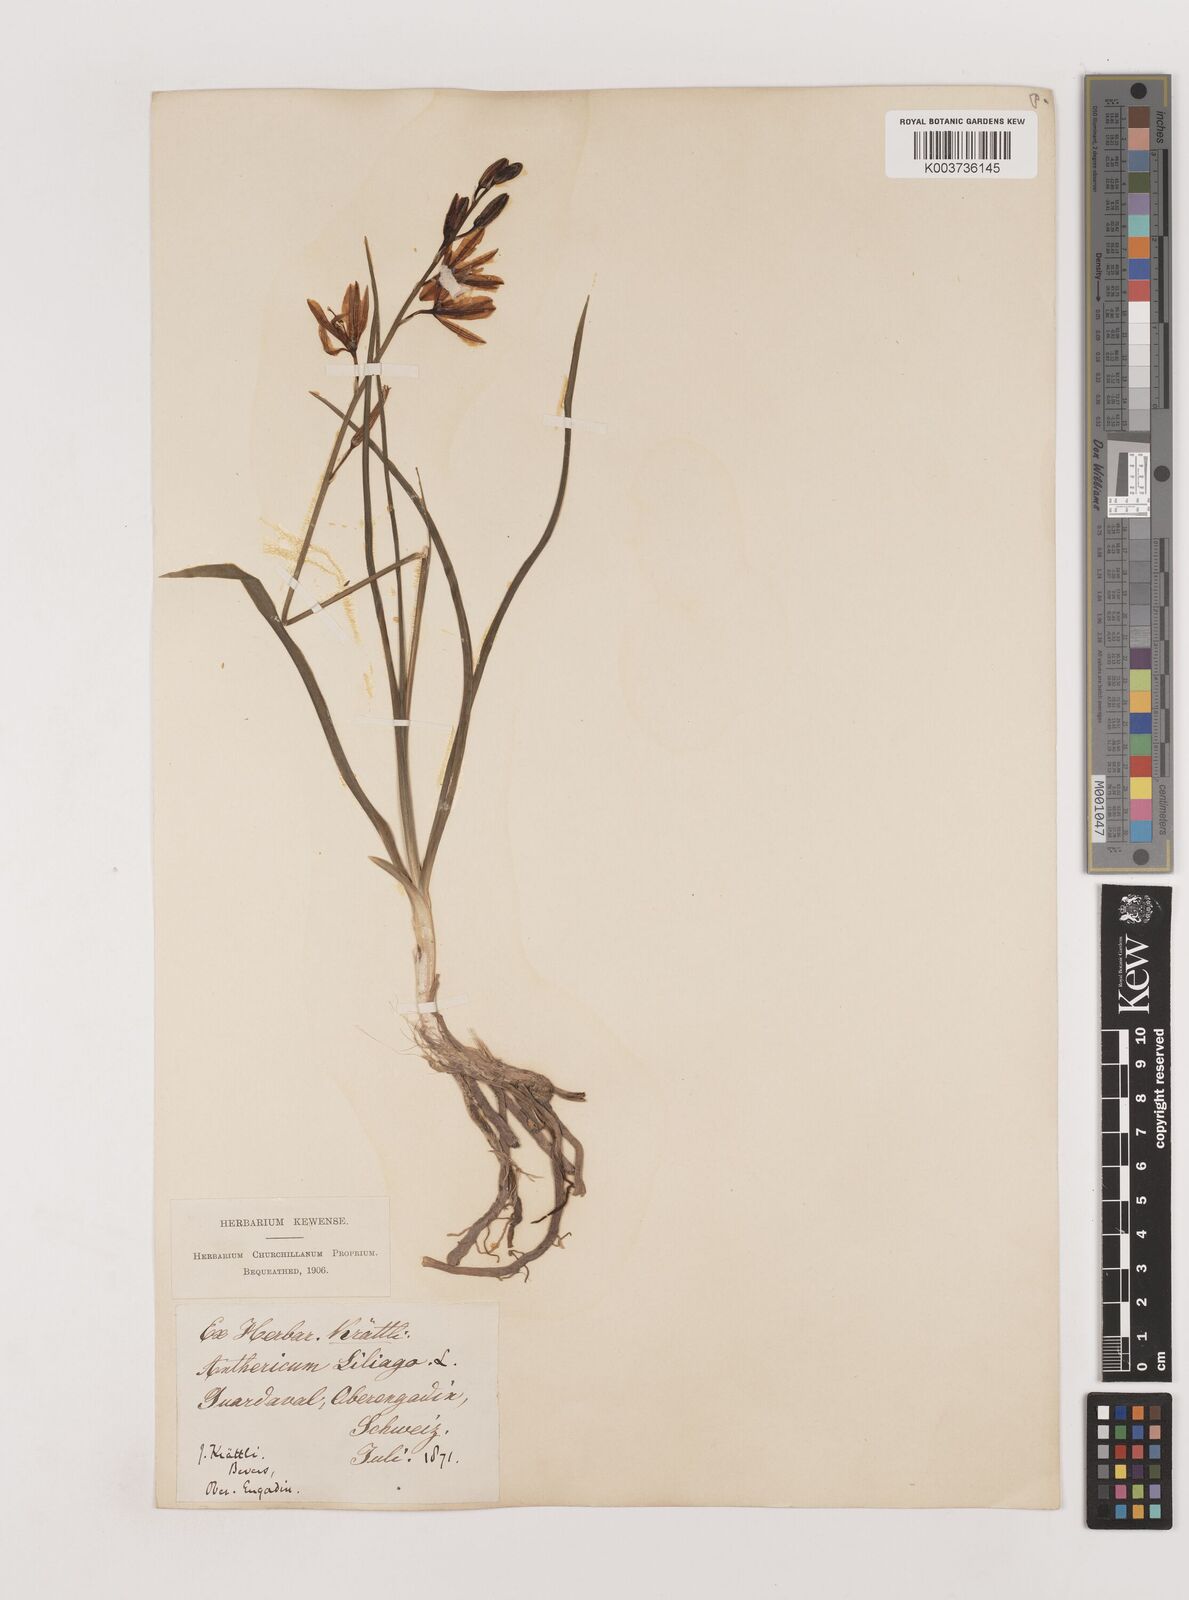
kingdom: Plantae
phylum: Tracheophyta
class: Liliopsida
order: Asparagales
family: Asparagaceae
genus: Anthericum
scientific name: Anthericum liliago
